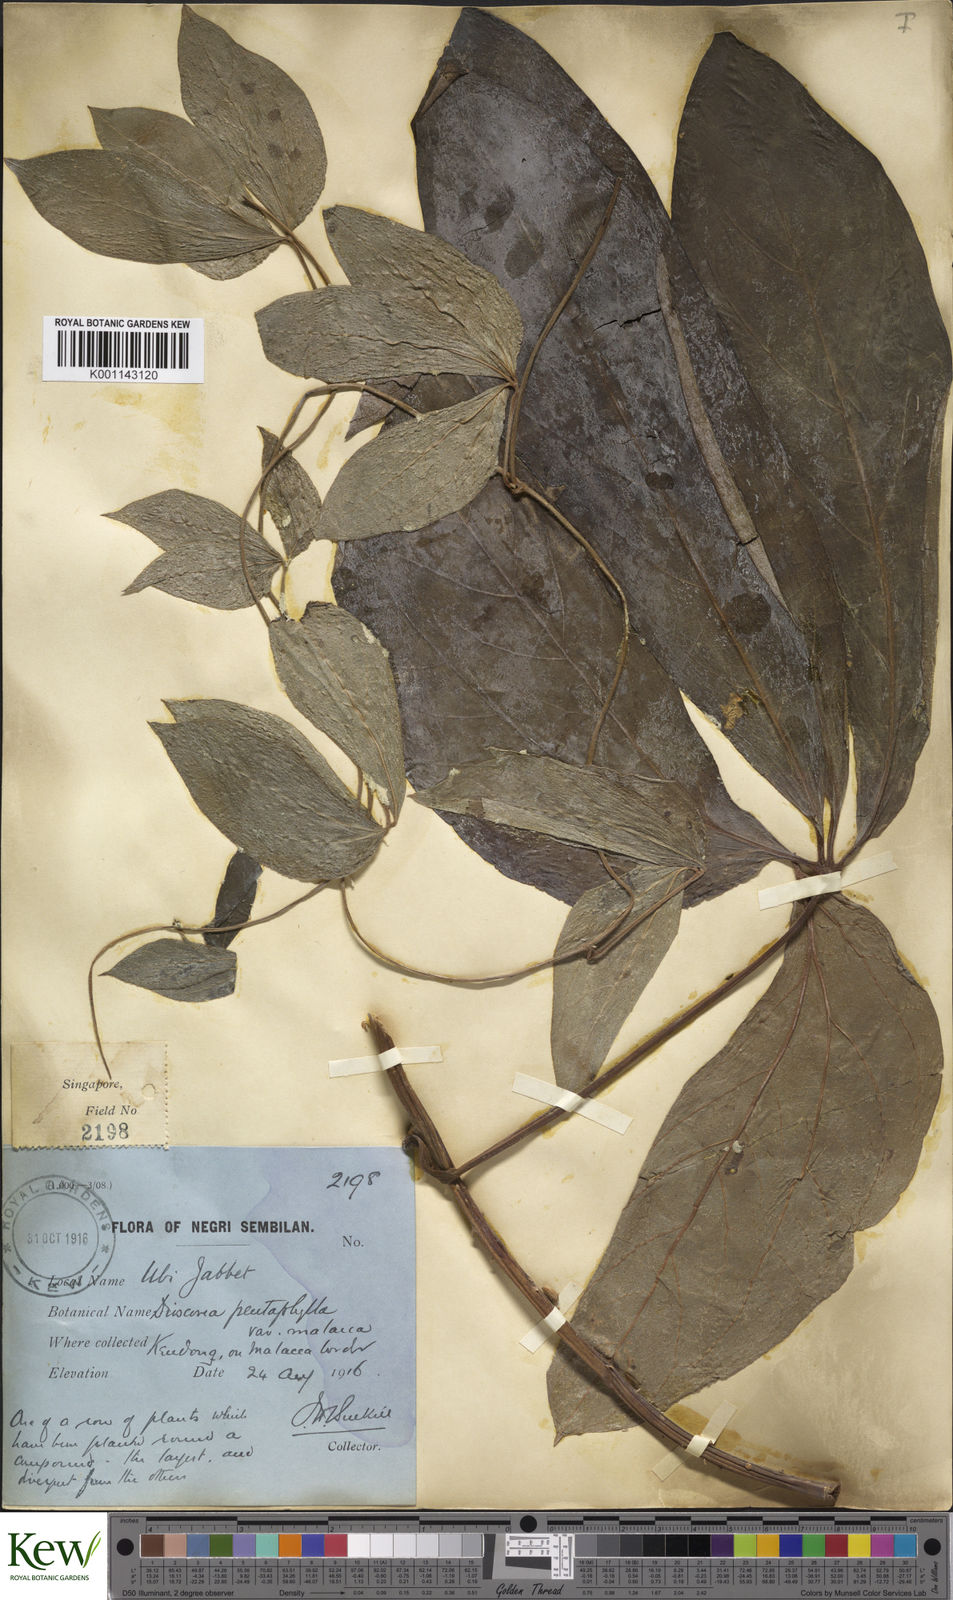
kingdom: Plantae
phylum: Tracheophyta
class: Liliopsida
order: Dioscoreales
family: Dioscoreaceae
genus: Dioscorea
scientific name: Dioscorea pentaphylla
